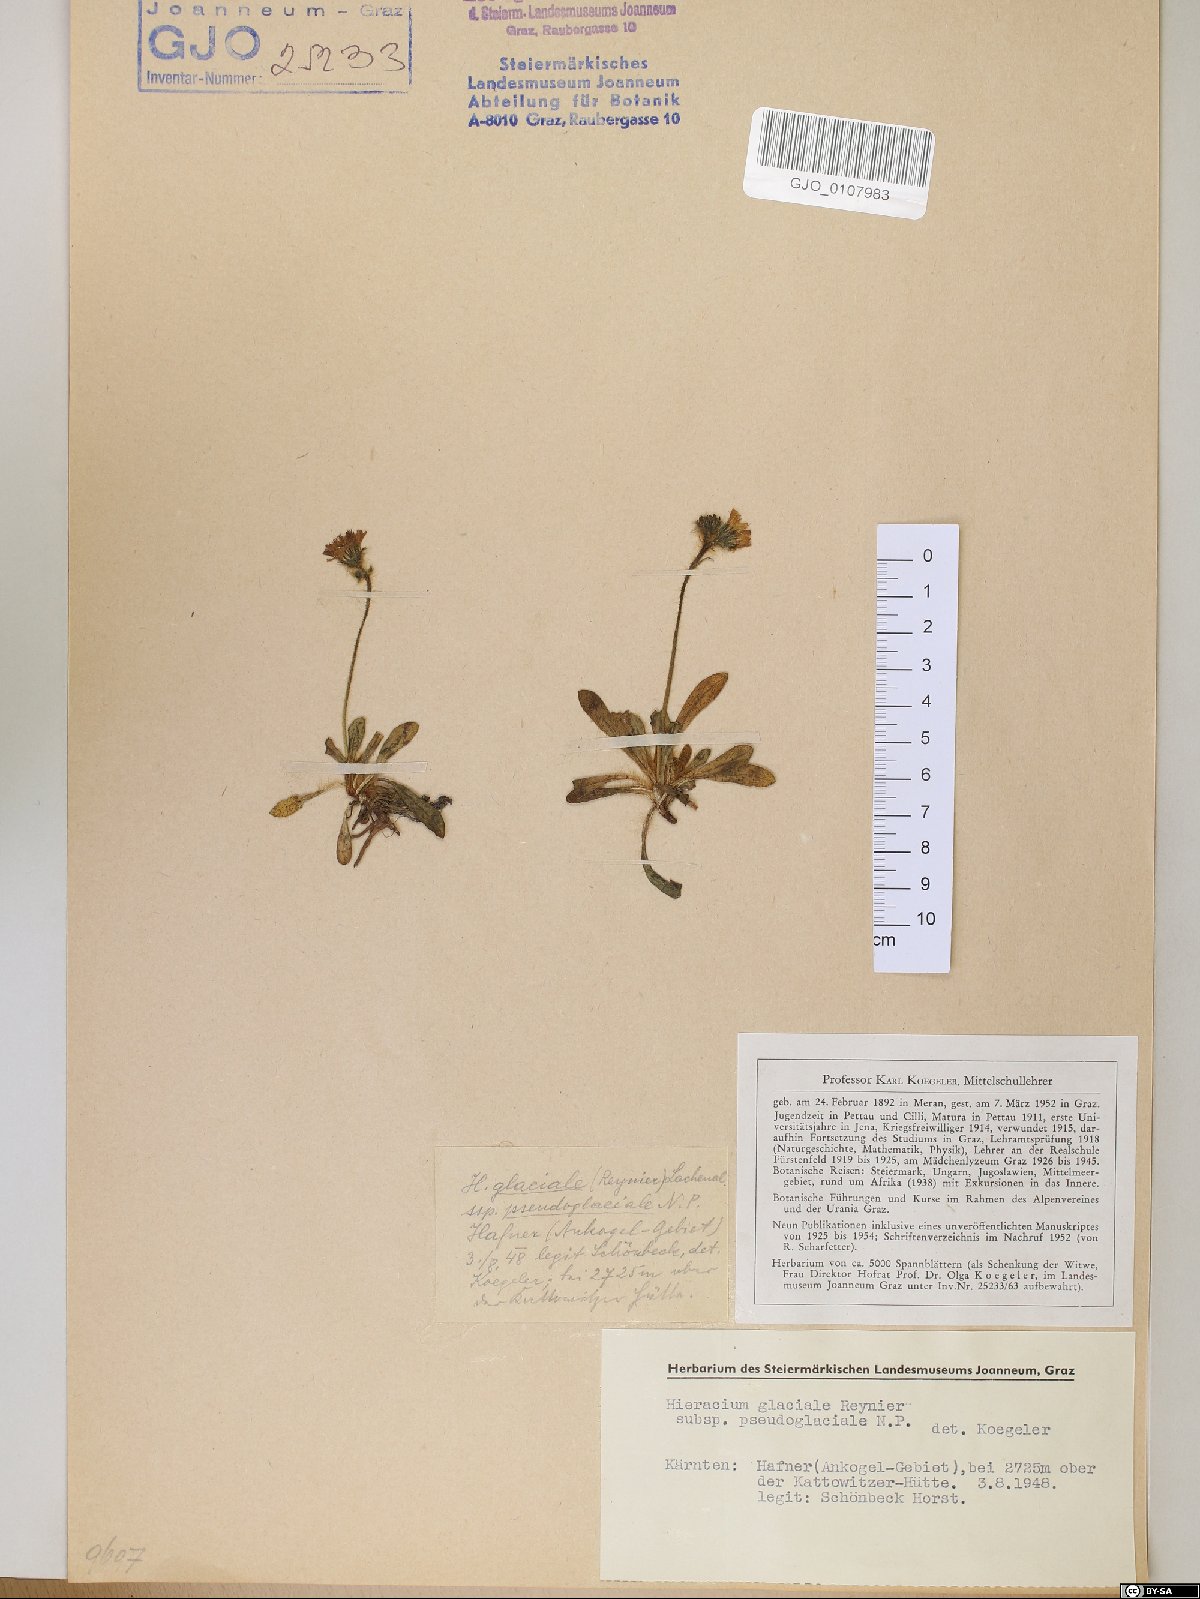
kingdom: Plantae
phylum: Tracheophyta
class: Magnoliopsida
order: Asterales
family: Asteraceae
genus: Pilosella
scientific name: Pilosella glacialis
